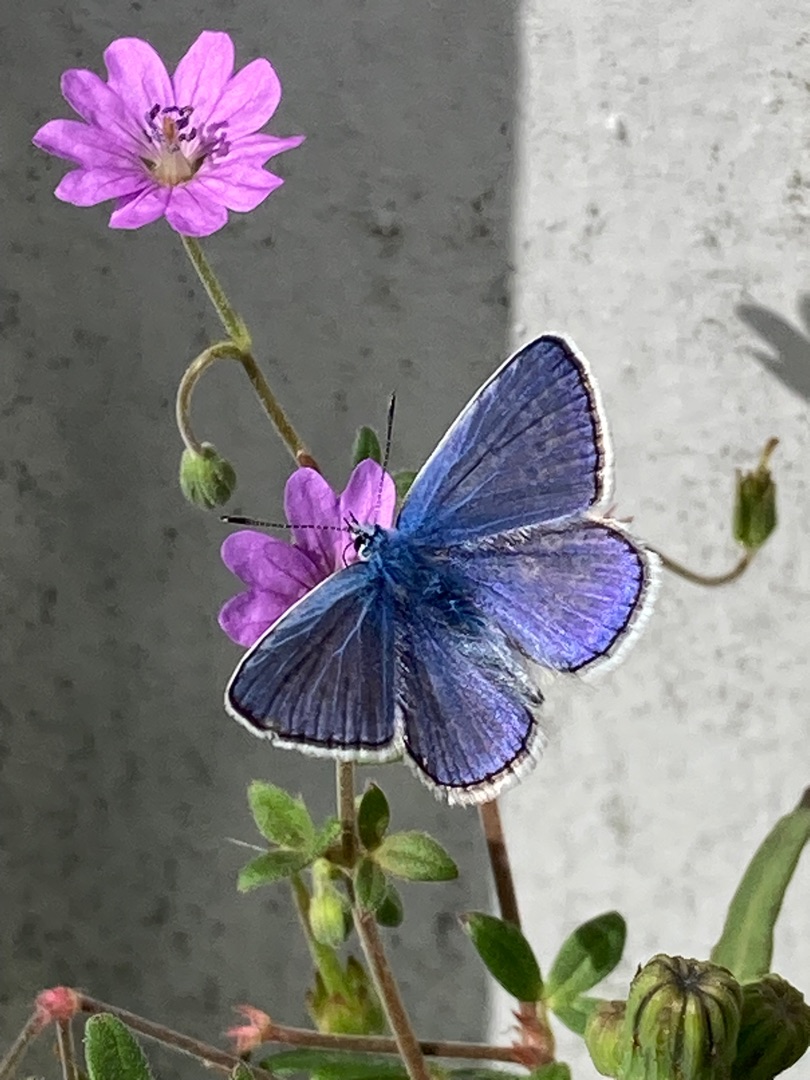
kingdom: Animalia
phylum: Arthropoda
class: Insecta
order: Lepidoptera
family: Lycaenidae
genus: Polyommatus
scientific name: Polyommatus icarus
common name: Almindelig blåfugl
